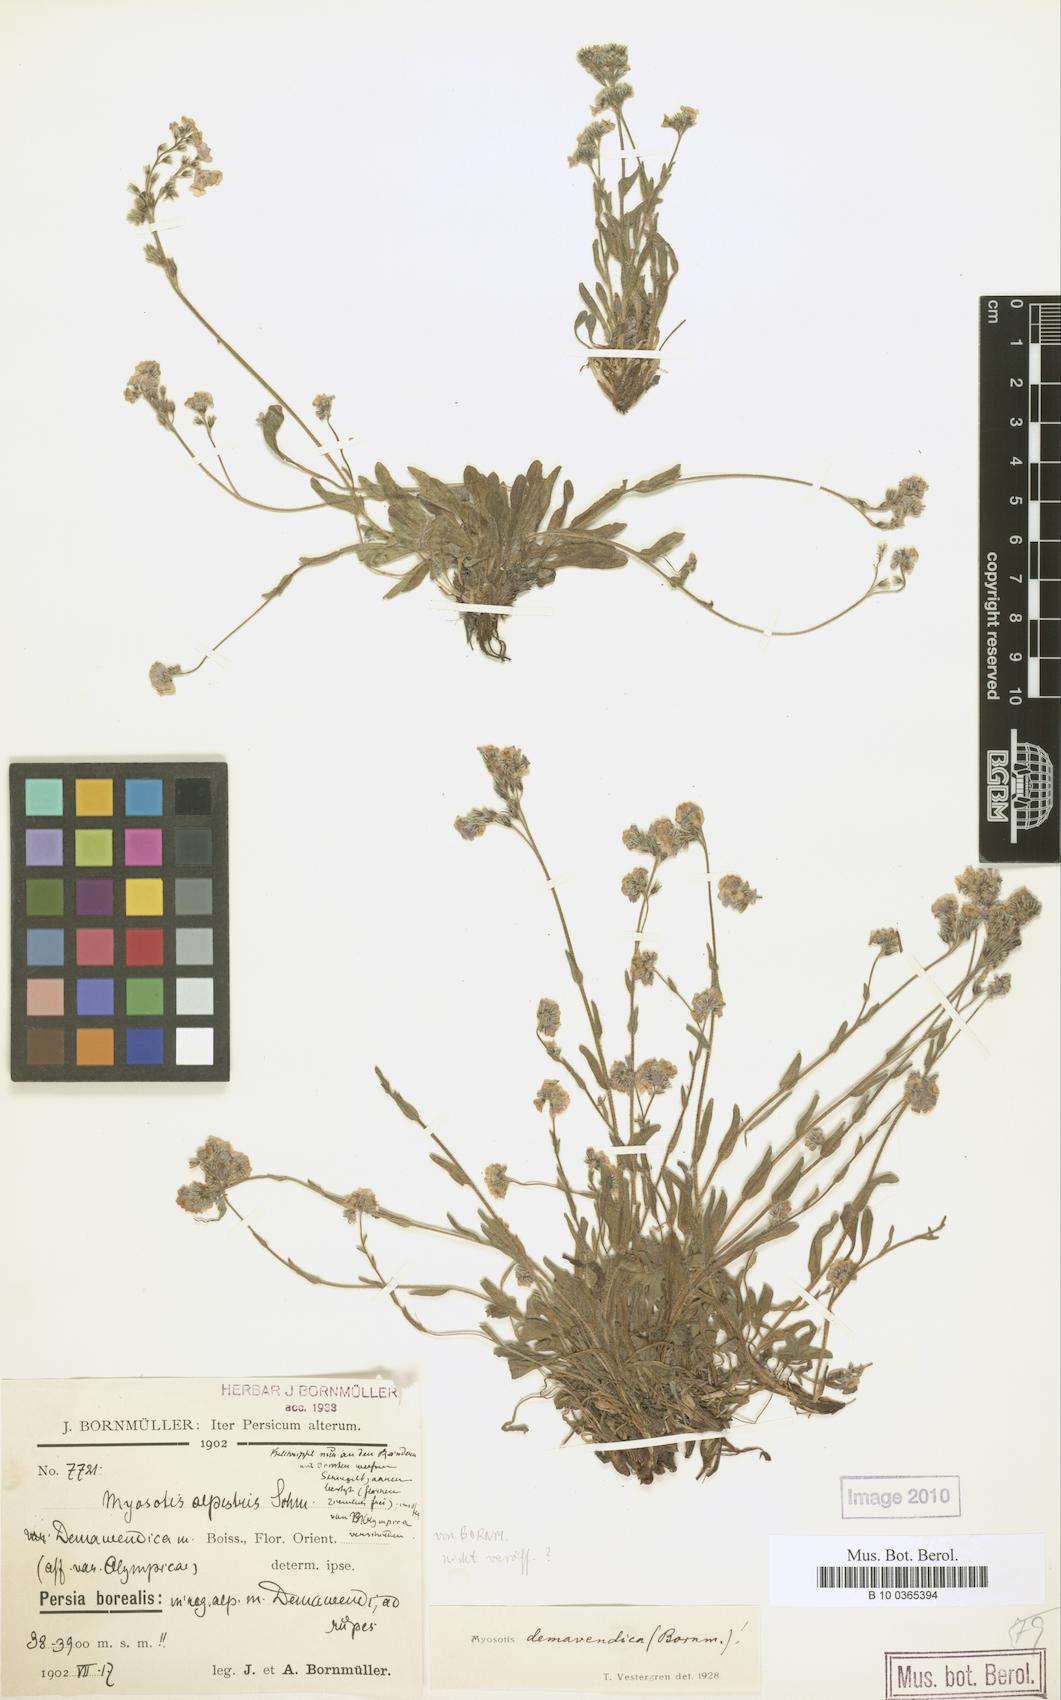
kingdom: Plantae
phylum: Tracheophyta
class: Magnoliopsida
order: Boraginales
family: Boraginaceae
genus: Myosotis
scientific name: Myosotis olympica
